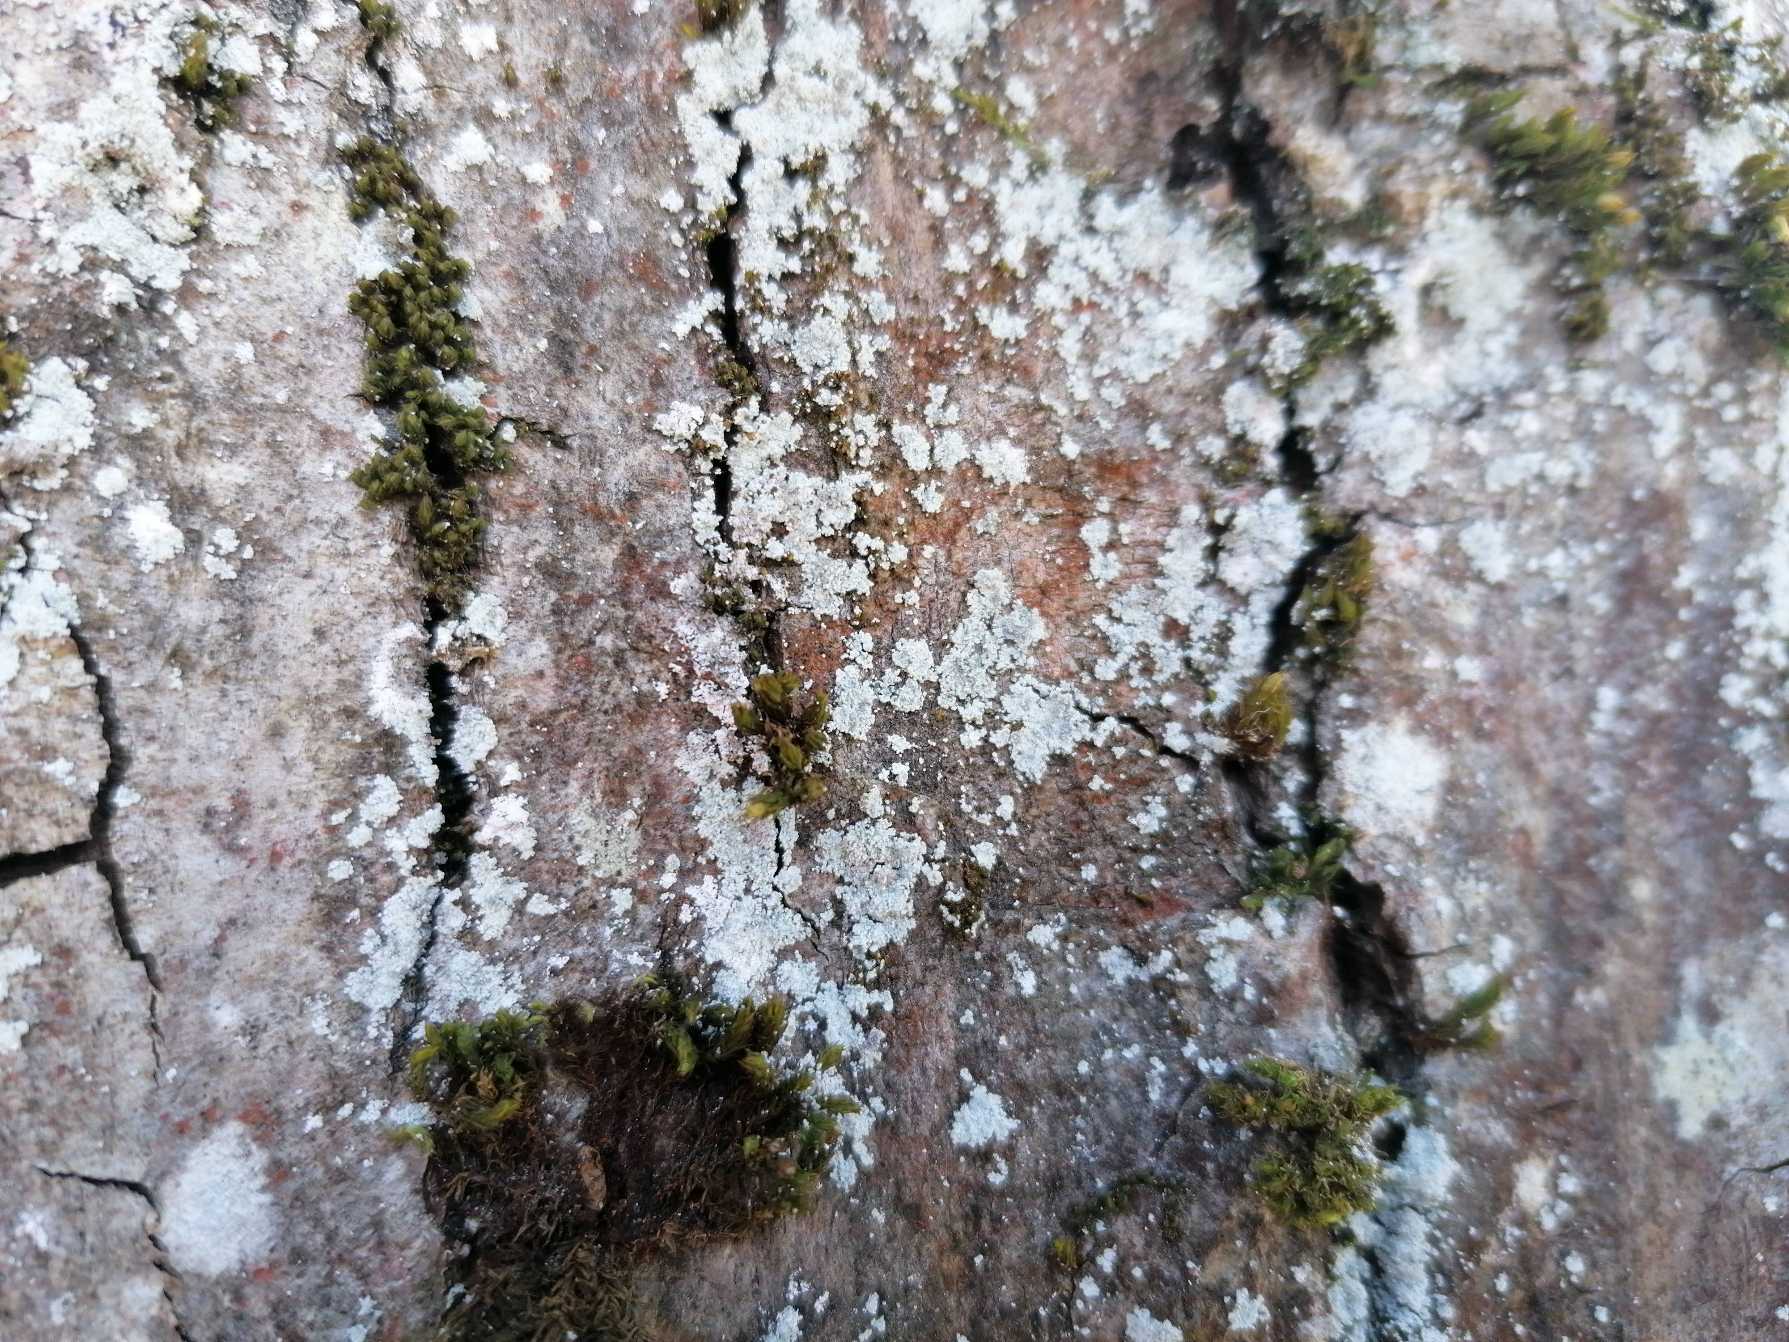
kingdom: Fungi
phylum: Ascomycota
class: Lecanoromycetes
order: Lecanorales
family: Stereocaulaceae
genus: Lepraria
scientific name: Lepraria
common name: Støvlav
